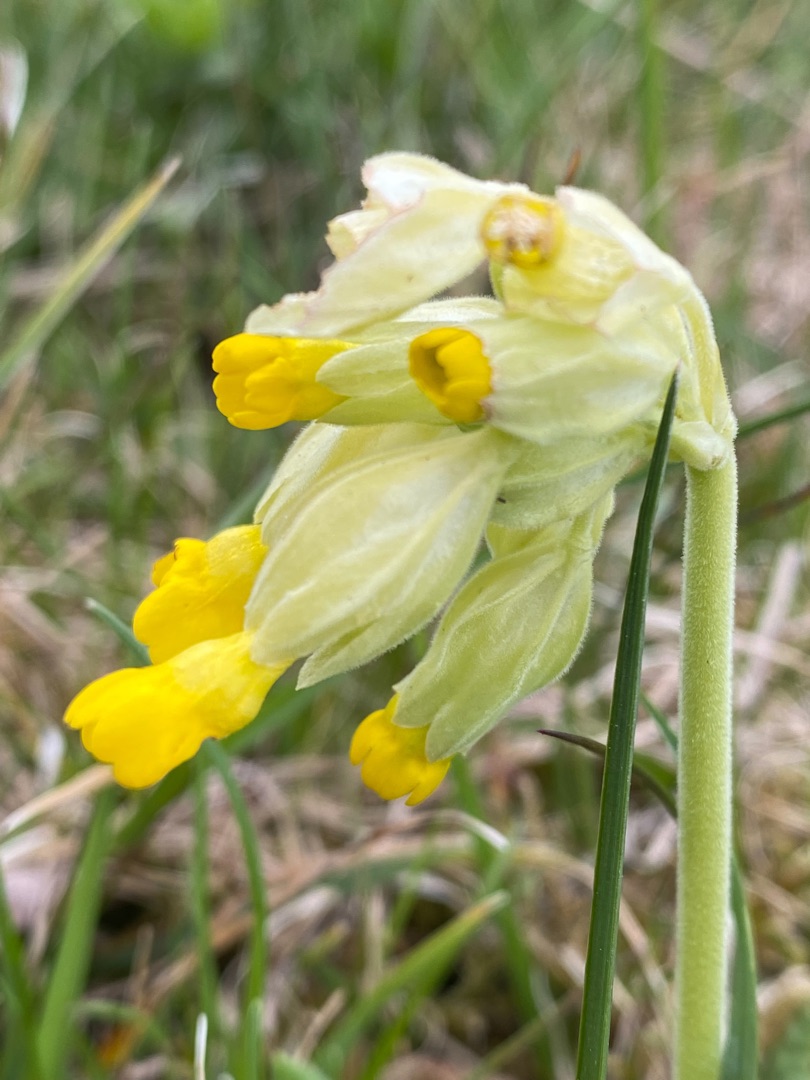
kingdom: Plantae
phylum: Tracheophyta
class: Magnoliopsida
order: Ericales
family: Primulaceae
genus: Primula
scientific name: Primula veris
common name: Hulkravet kodriver
